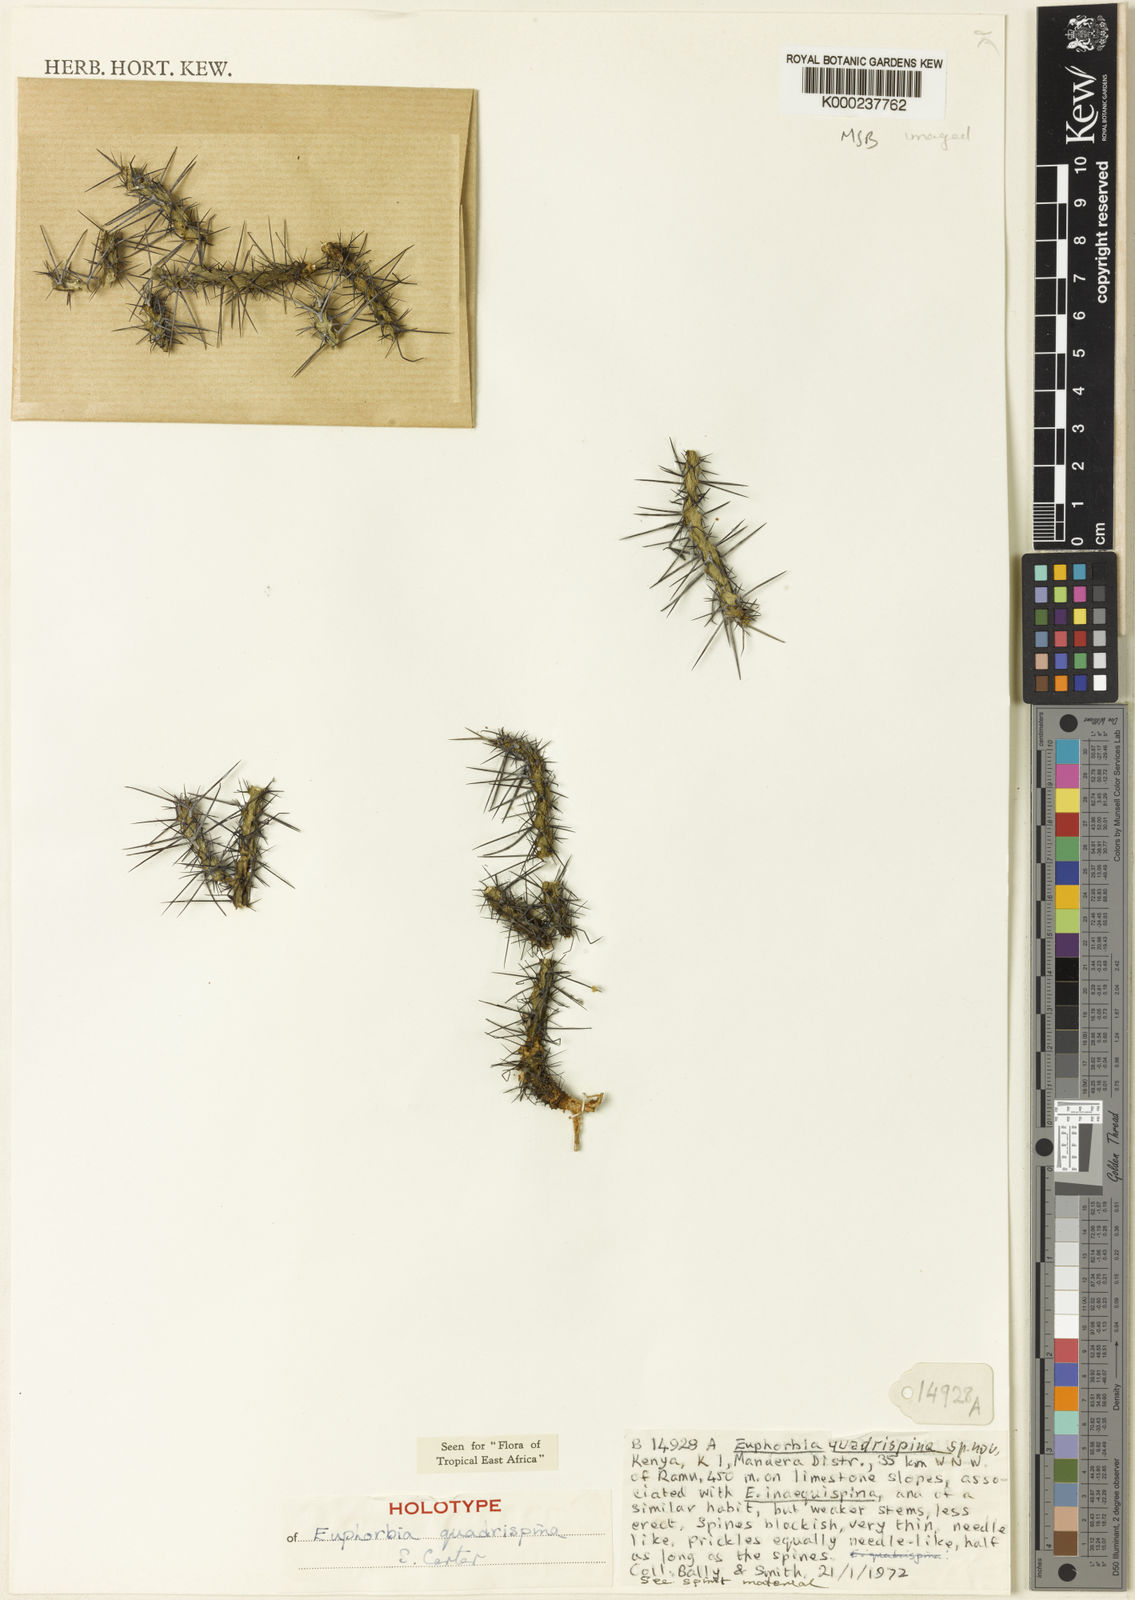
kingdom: Plantae
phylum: Tracheophyta
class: Magnoliopsida
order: Malpighiales
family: Euphorbiaceae
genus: Euphorbia
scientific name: Euphorbia quadrispina
